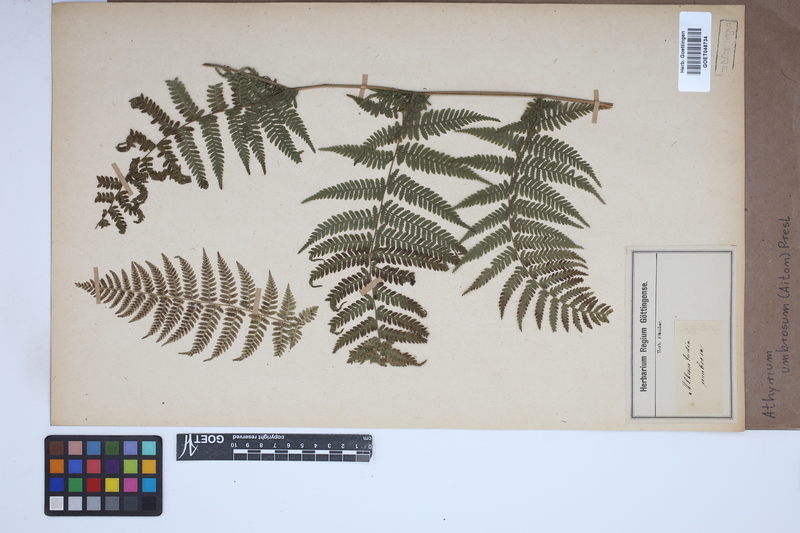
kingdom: Plantae
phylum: Tracheophyta
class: Polypodiopsida
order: Polypodiales
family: Athyriaceae
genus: Diplazium
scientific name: Diplazium caudatum
